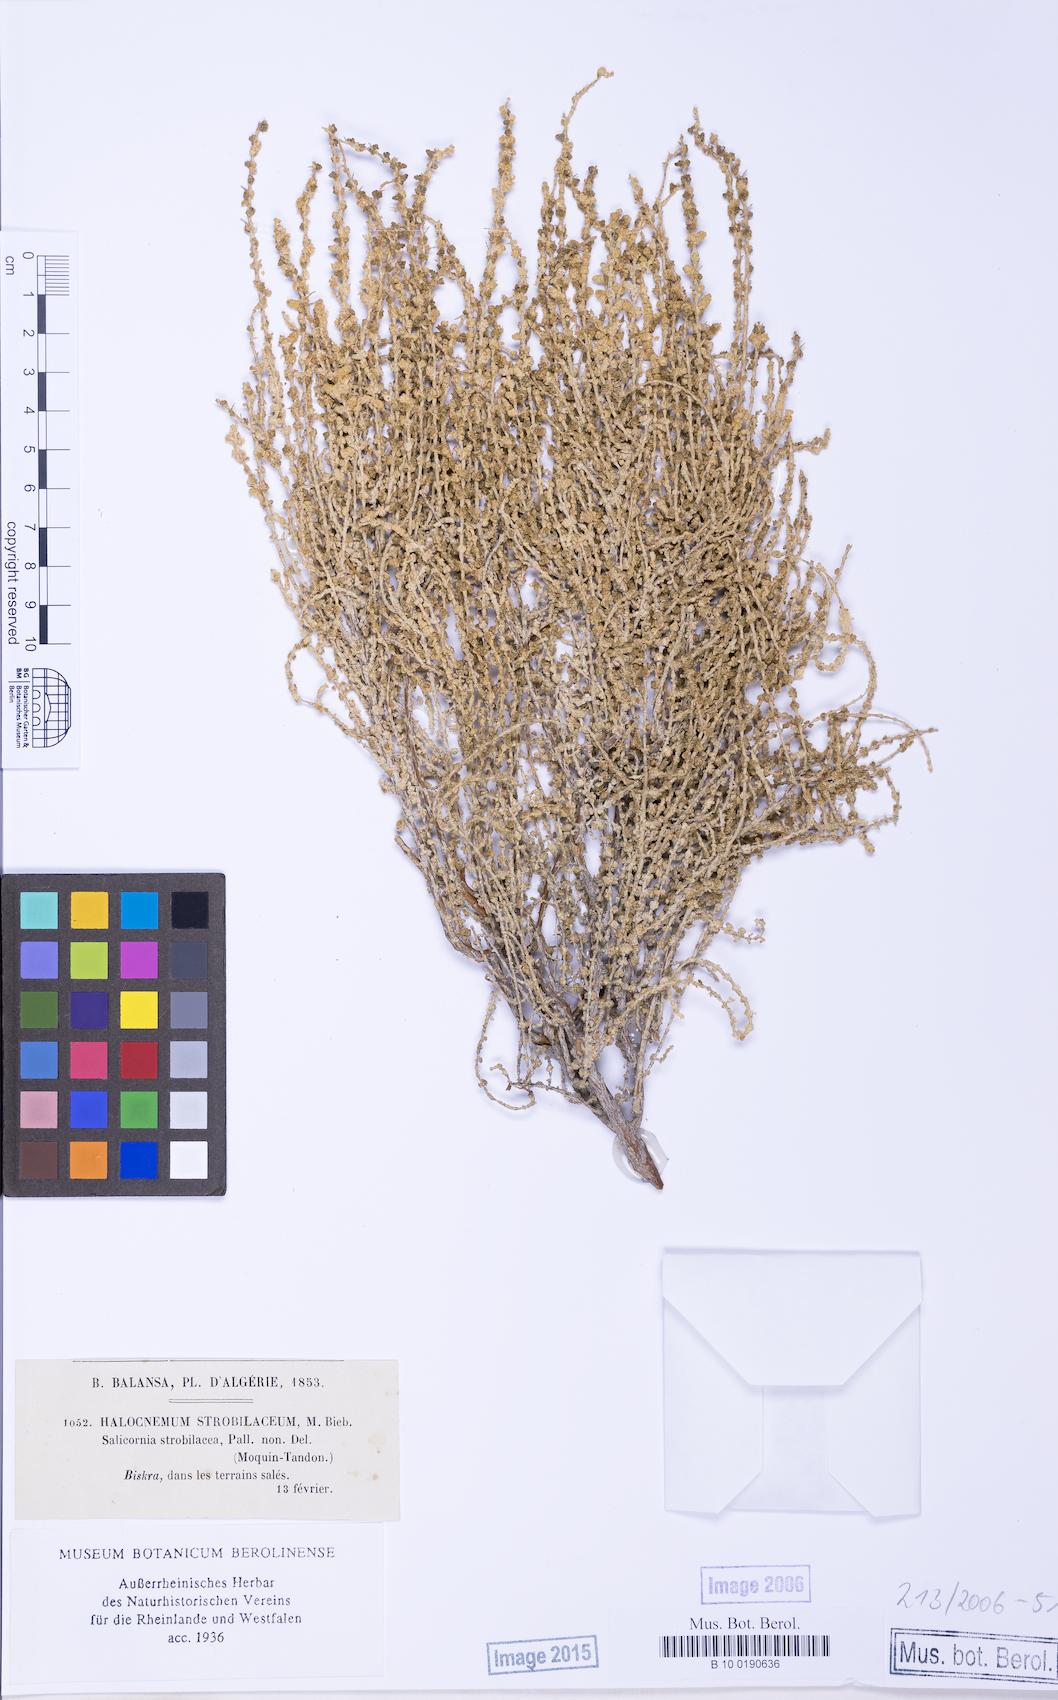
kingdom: Plantae
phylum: Tracheophyta
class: Magnoliopsida
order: Caryophyllales
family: Amaranthaceae
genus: Halocnemum
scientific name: Halocnemum strobilaceum
